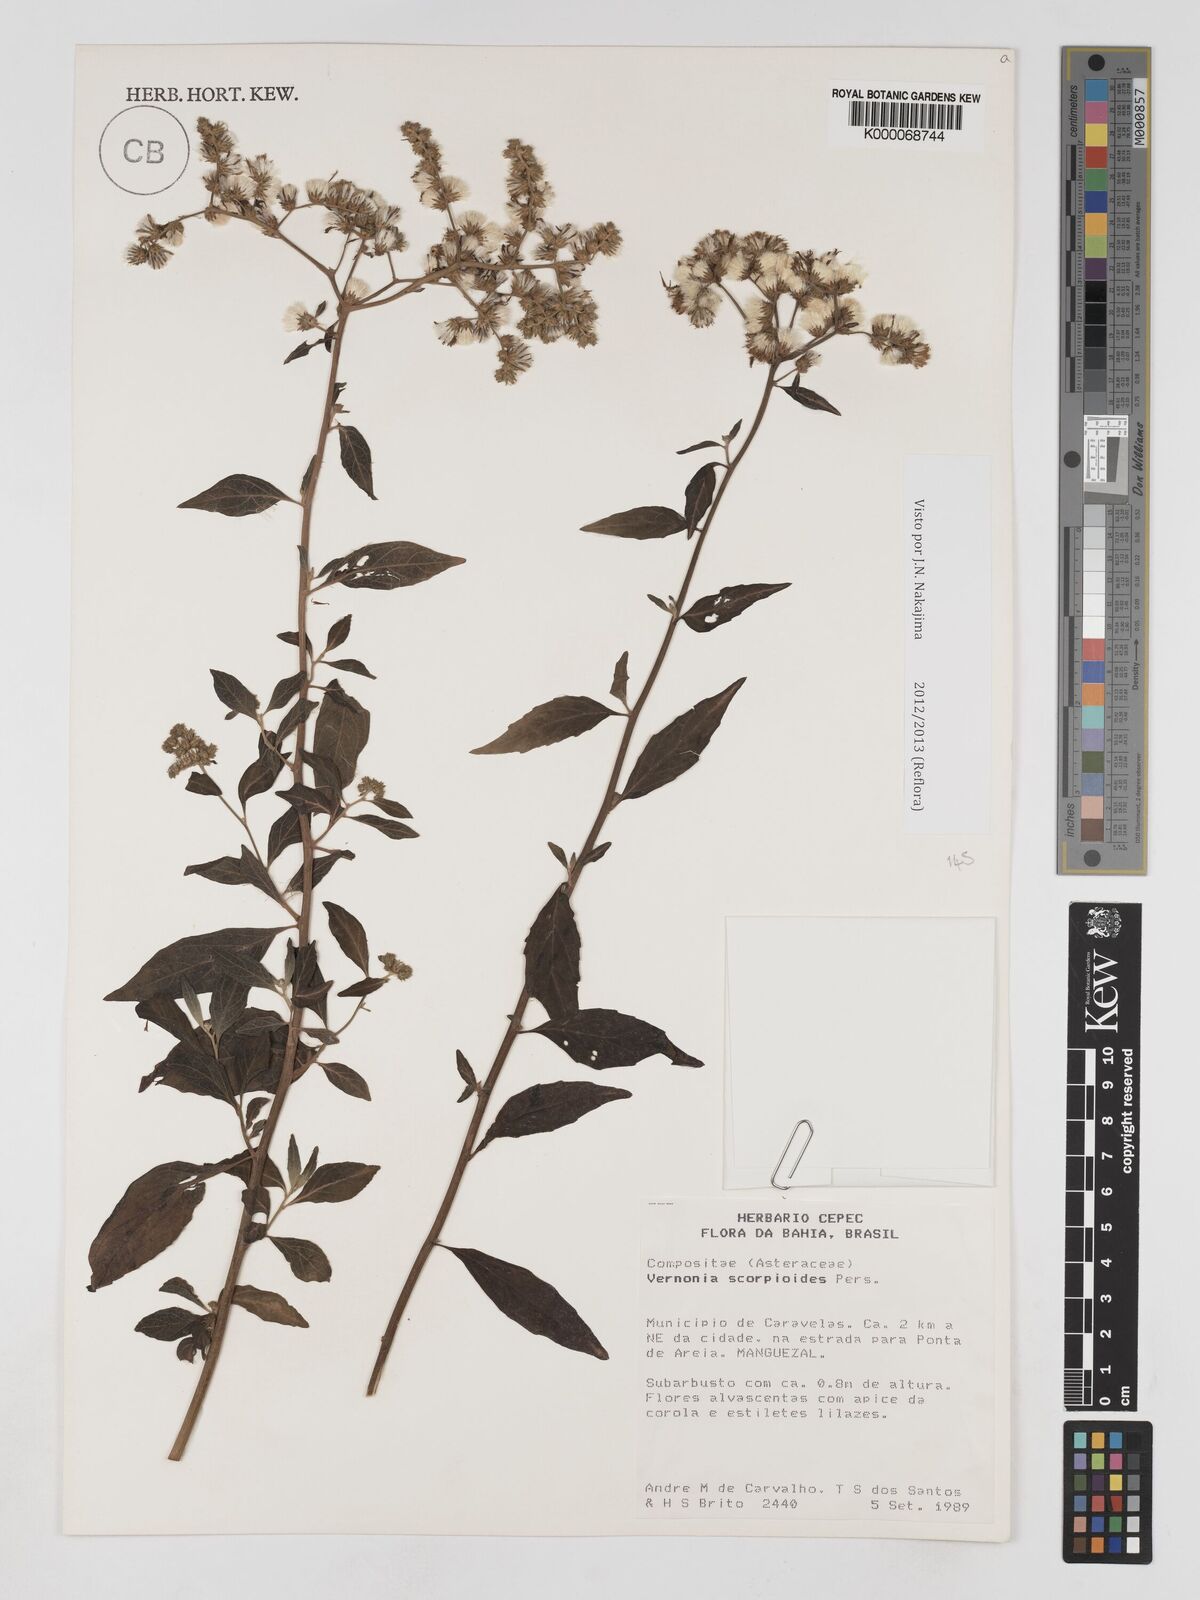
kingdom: Plantae
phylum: Tracheophyta
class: Magnoliopsida
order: Asterales
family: Asteraceae
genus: Cyrtocymura
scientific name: Cyrtocymura scorpioides
